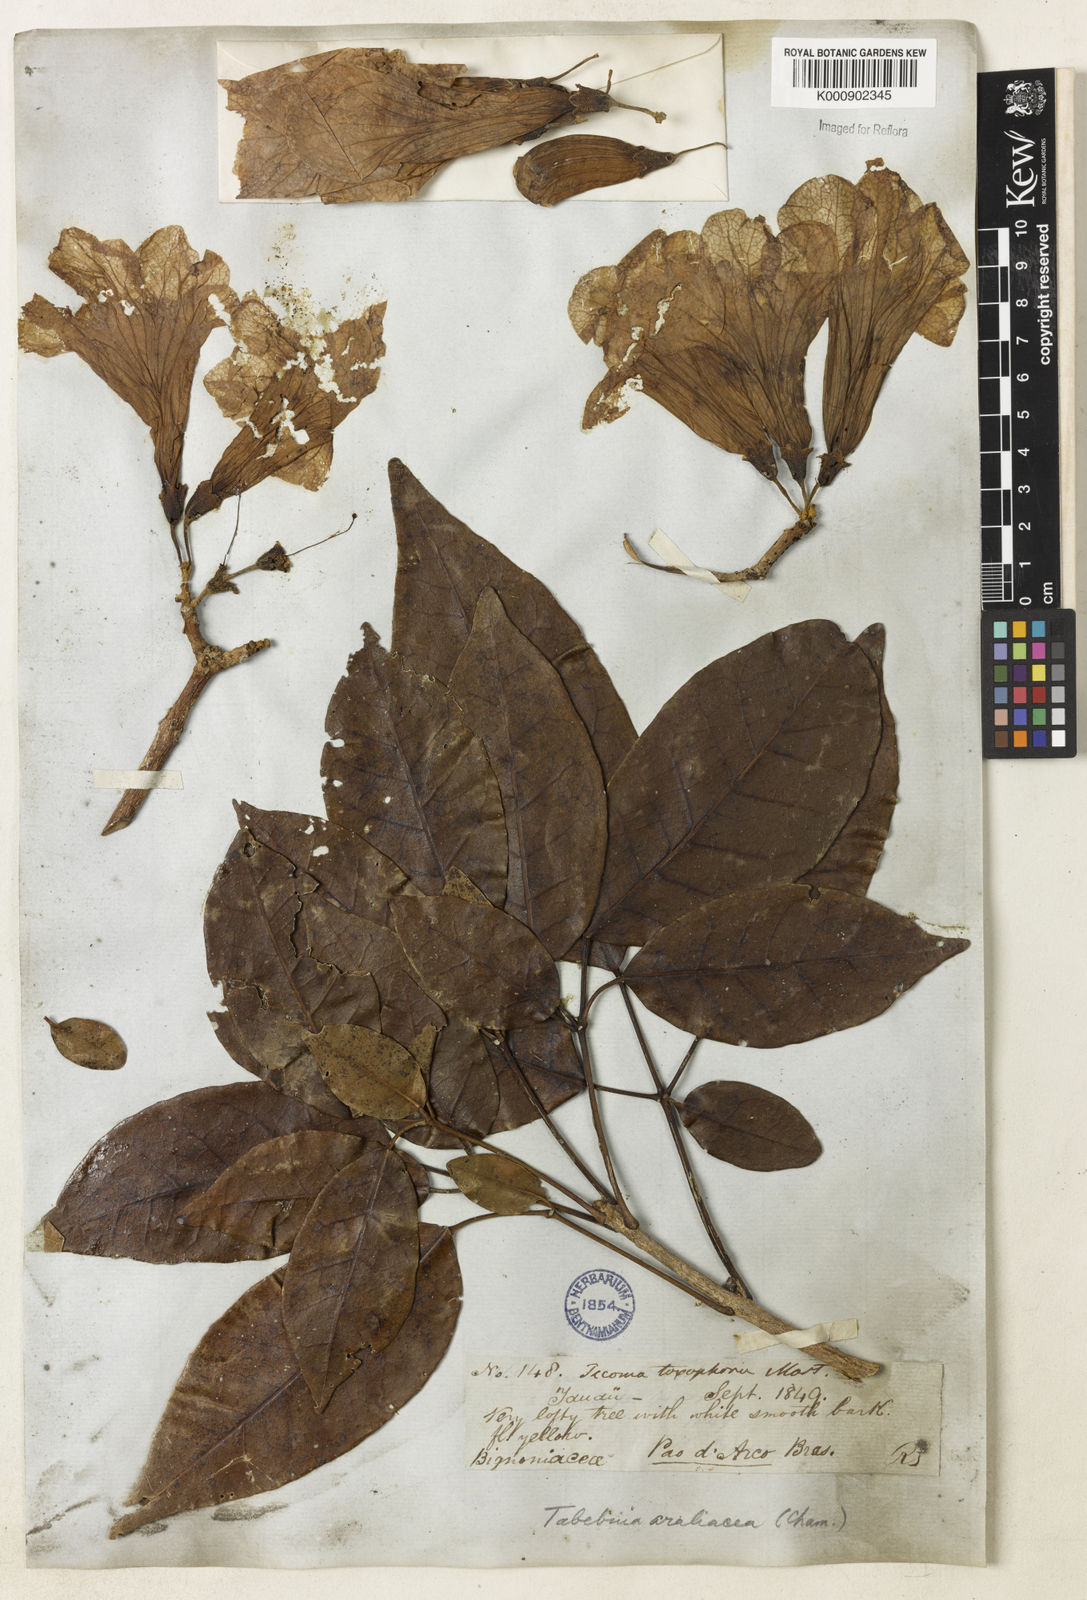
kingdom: Plantae
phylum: Tracheophyta
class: Magnoliopsida
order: Lamiales
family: Bignoniaceae
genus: Handroanthus
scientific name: Handroanthus serratifolius
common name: Yellow ipe
